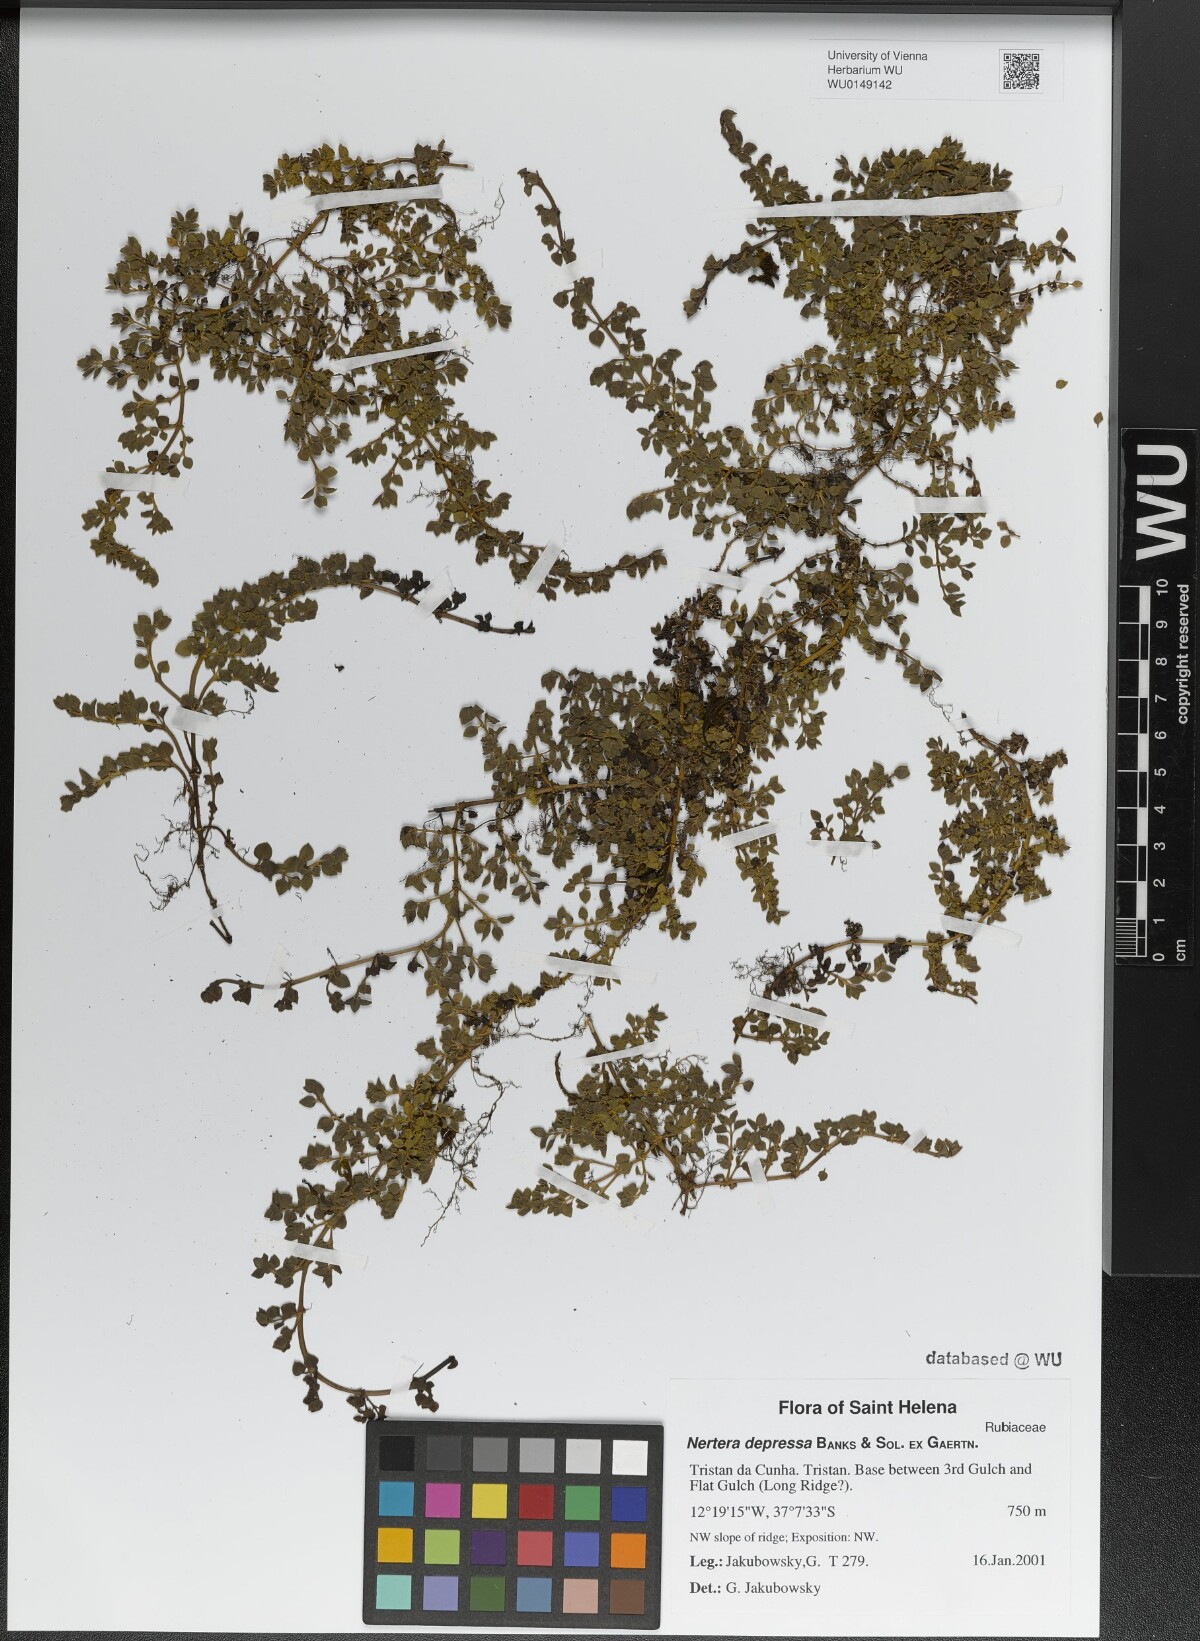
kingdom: Plantae
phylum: Tracheophyta
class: Magnoliopsida
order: Gentianales
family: Rubiaceae
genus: Nertera
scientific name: Nertera granadensis
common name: Beadplant
